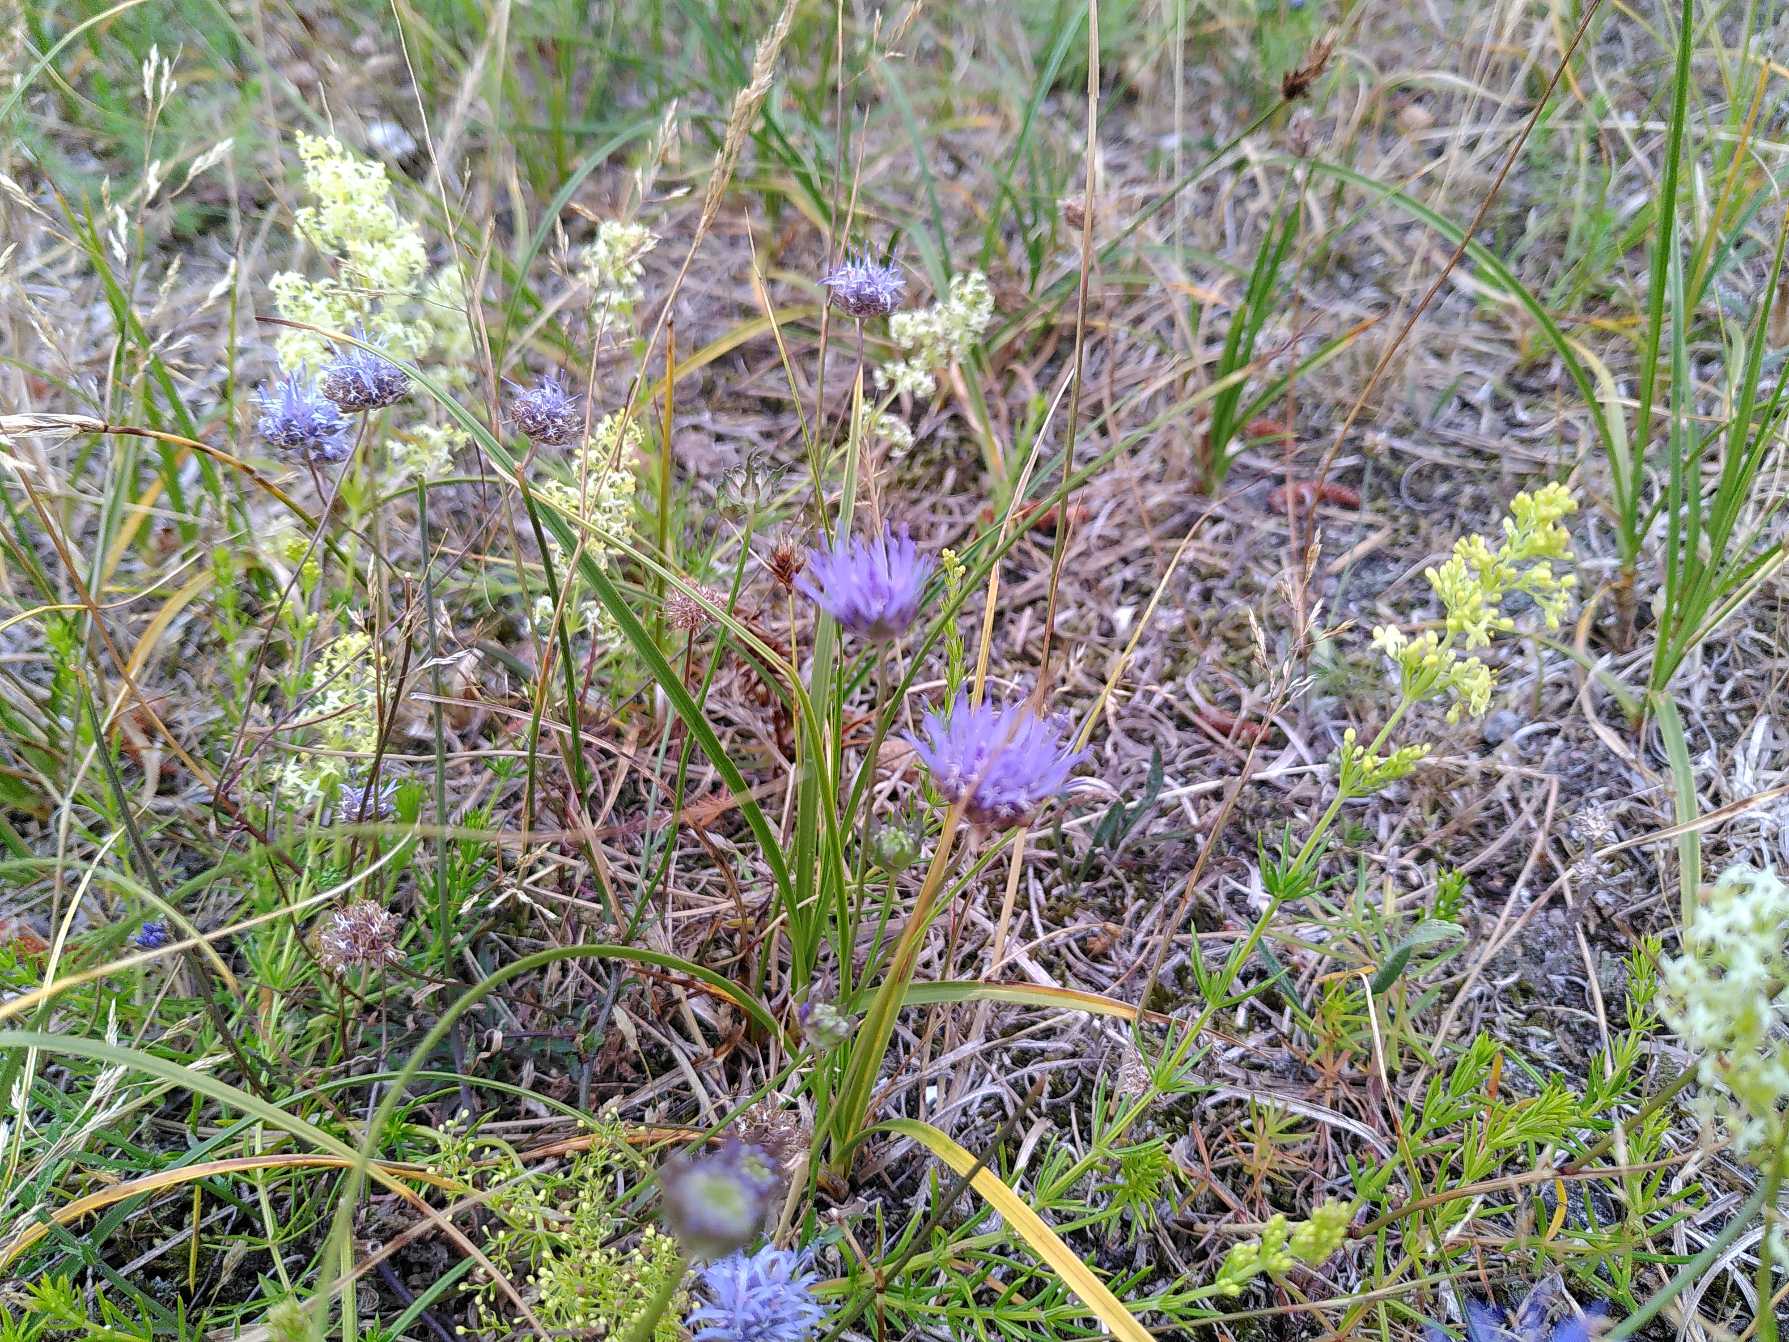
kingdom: Plantae
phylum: Tracheophyta
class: Magnoliopsida
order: Asterales
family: Campanulaceae
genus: Jasione
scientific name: Jasione montana
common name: Blåmunke
